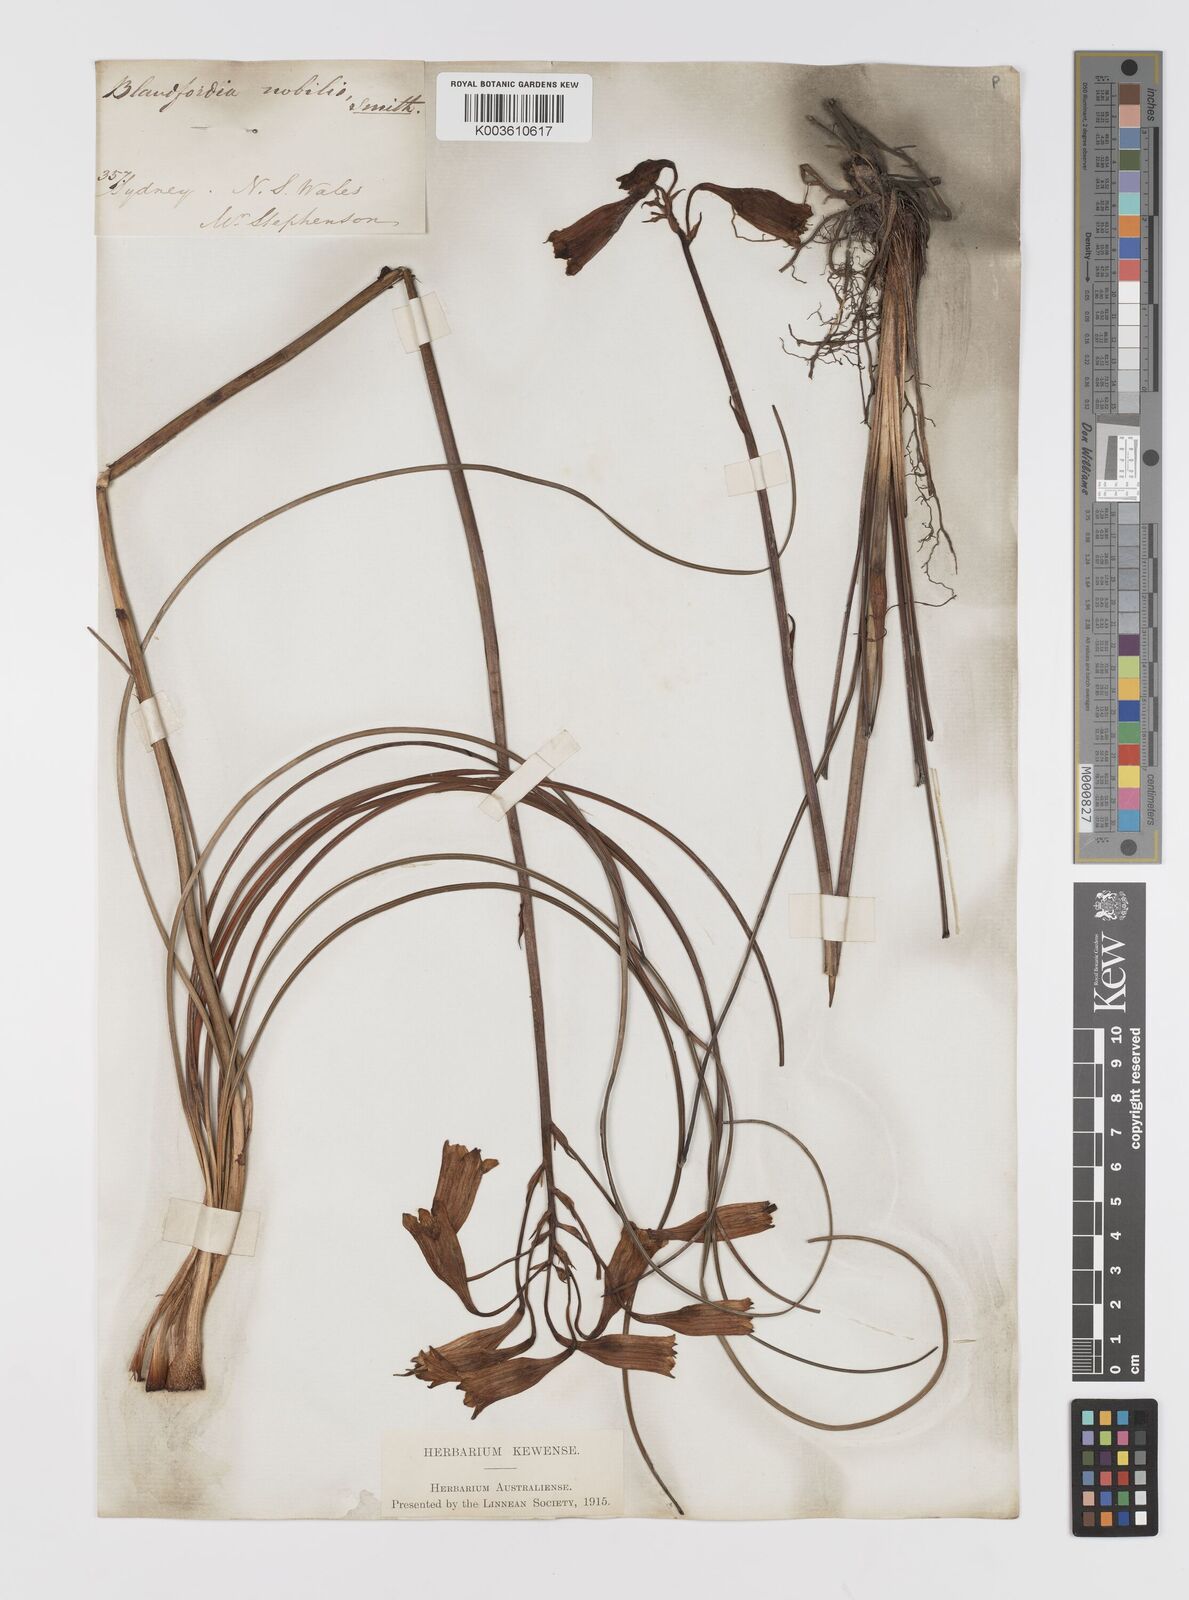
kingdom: Plantae
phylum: Tracheophyta
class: Liliopsida
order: Asparagales
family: Blandfordiaceae
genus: Blandfordia
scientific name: Blandfordia nobilis
